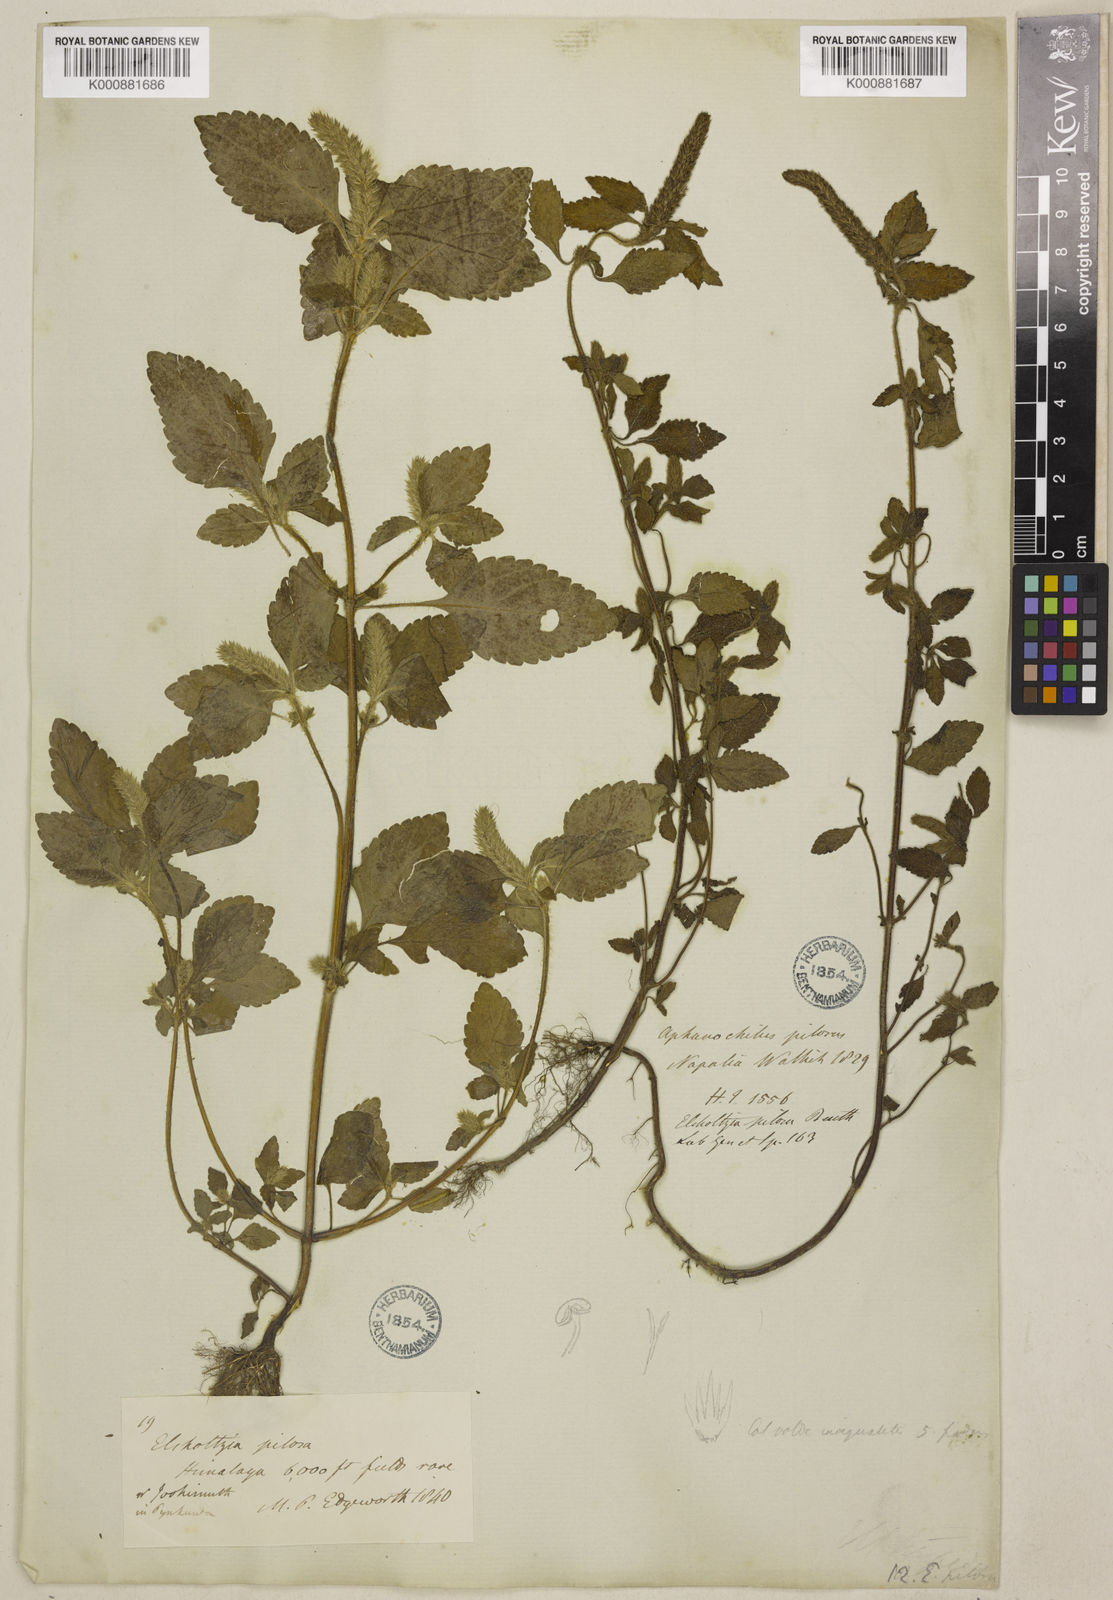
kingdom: Plantae
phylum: Tracheophyta
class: Magnoliopsida
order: Lamiales
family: Lamiaceae
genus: Elsholtzia
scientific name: Elsholtzia pilosa
